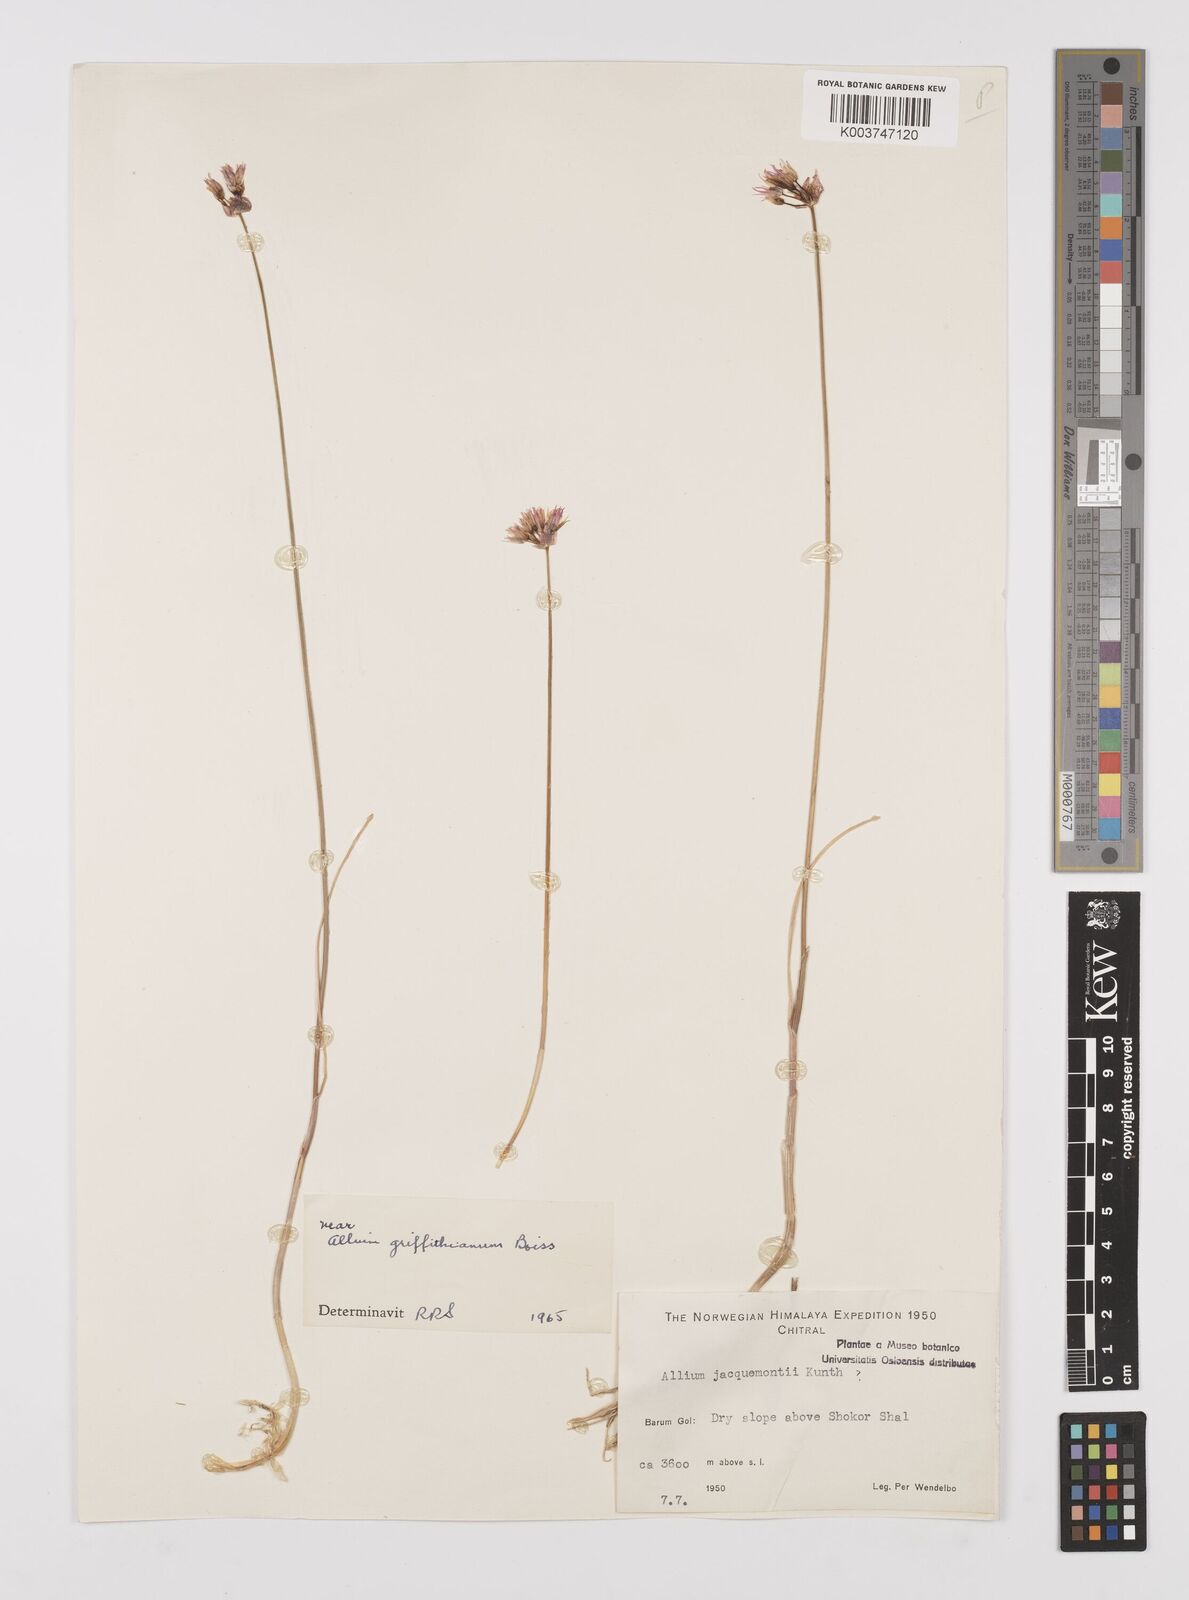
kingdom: Plantae
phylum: Tracheophyta
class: Liliopsida
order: Asparagales
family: Amaryllidaceae
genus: Allium
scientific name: Allium griffithianum
